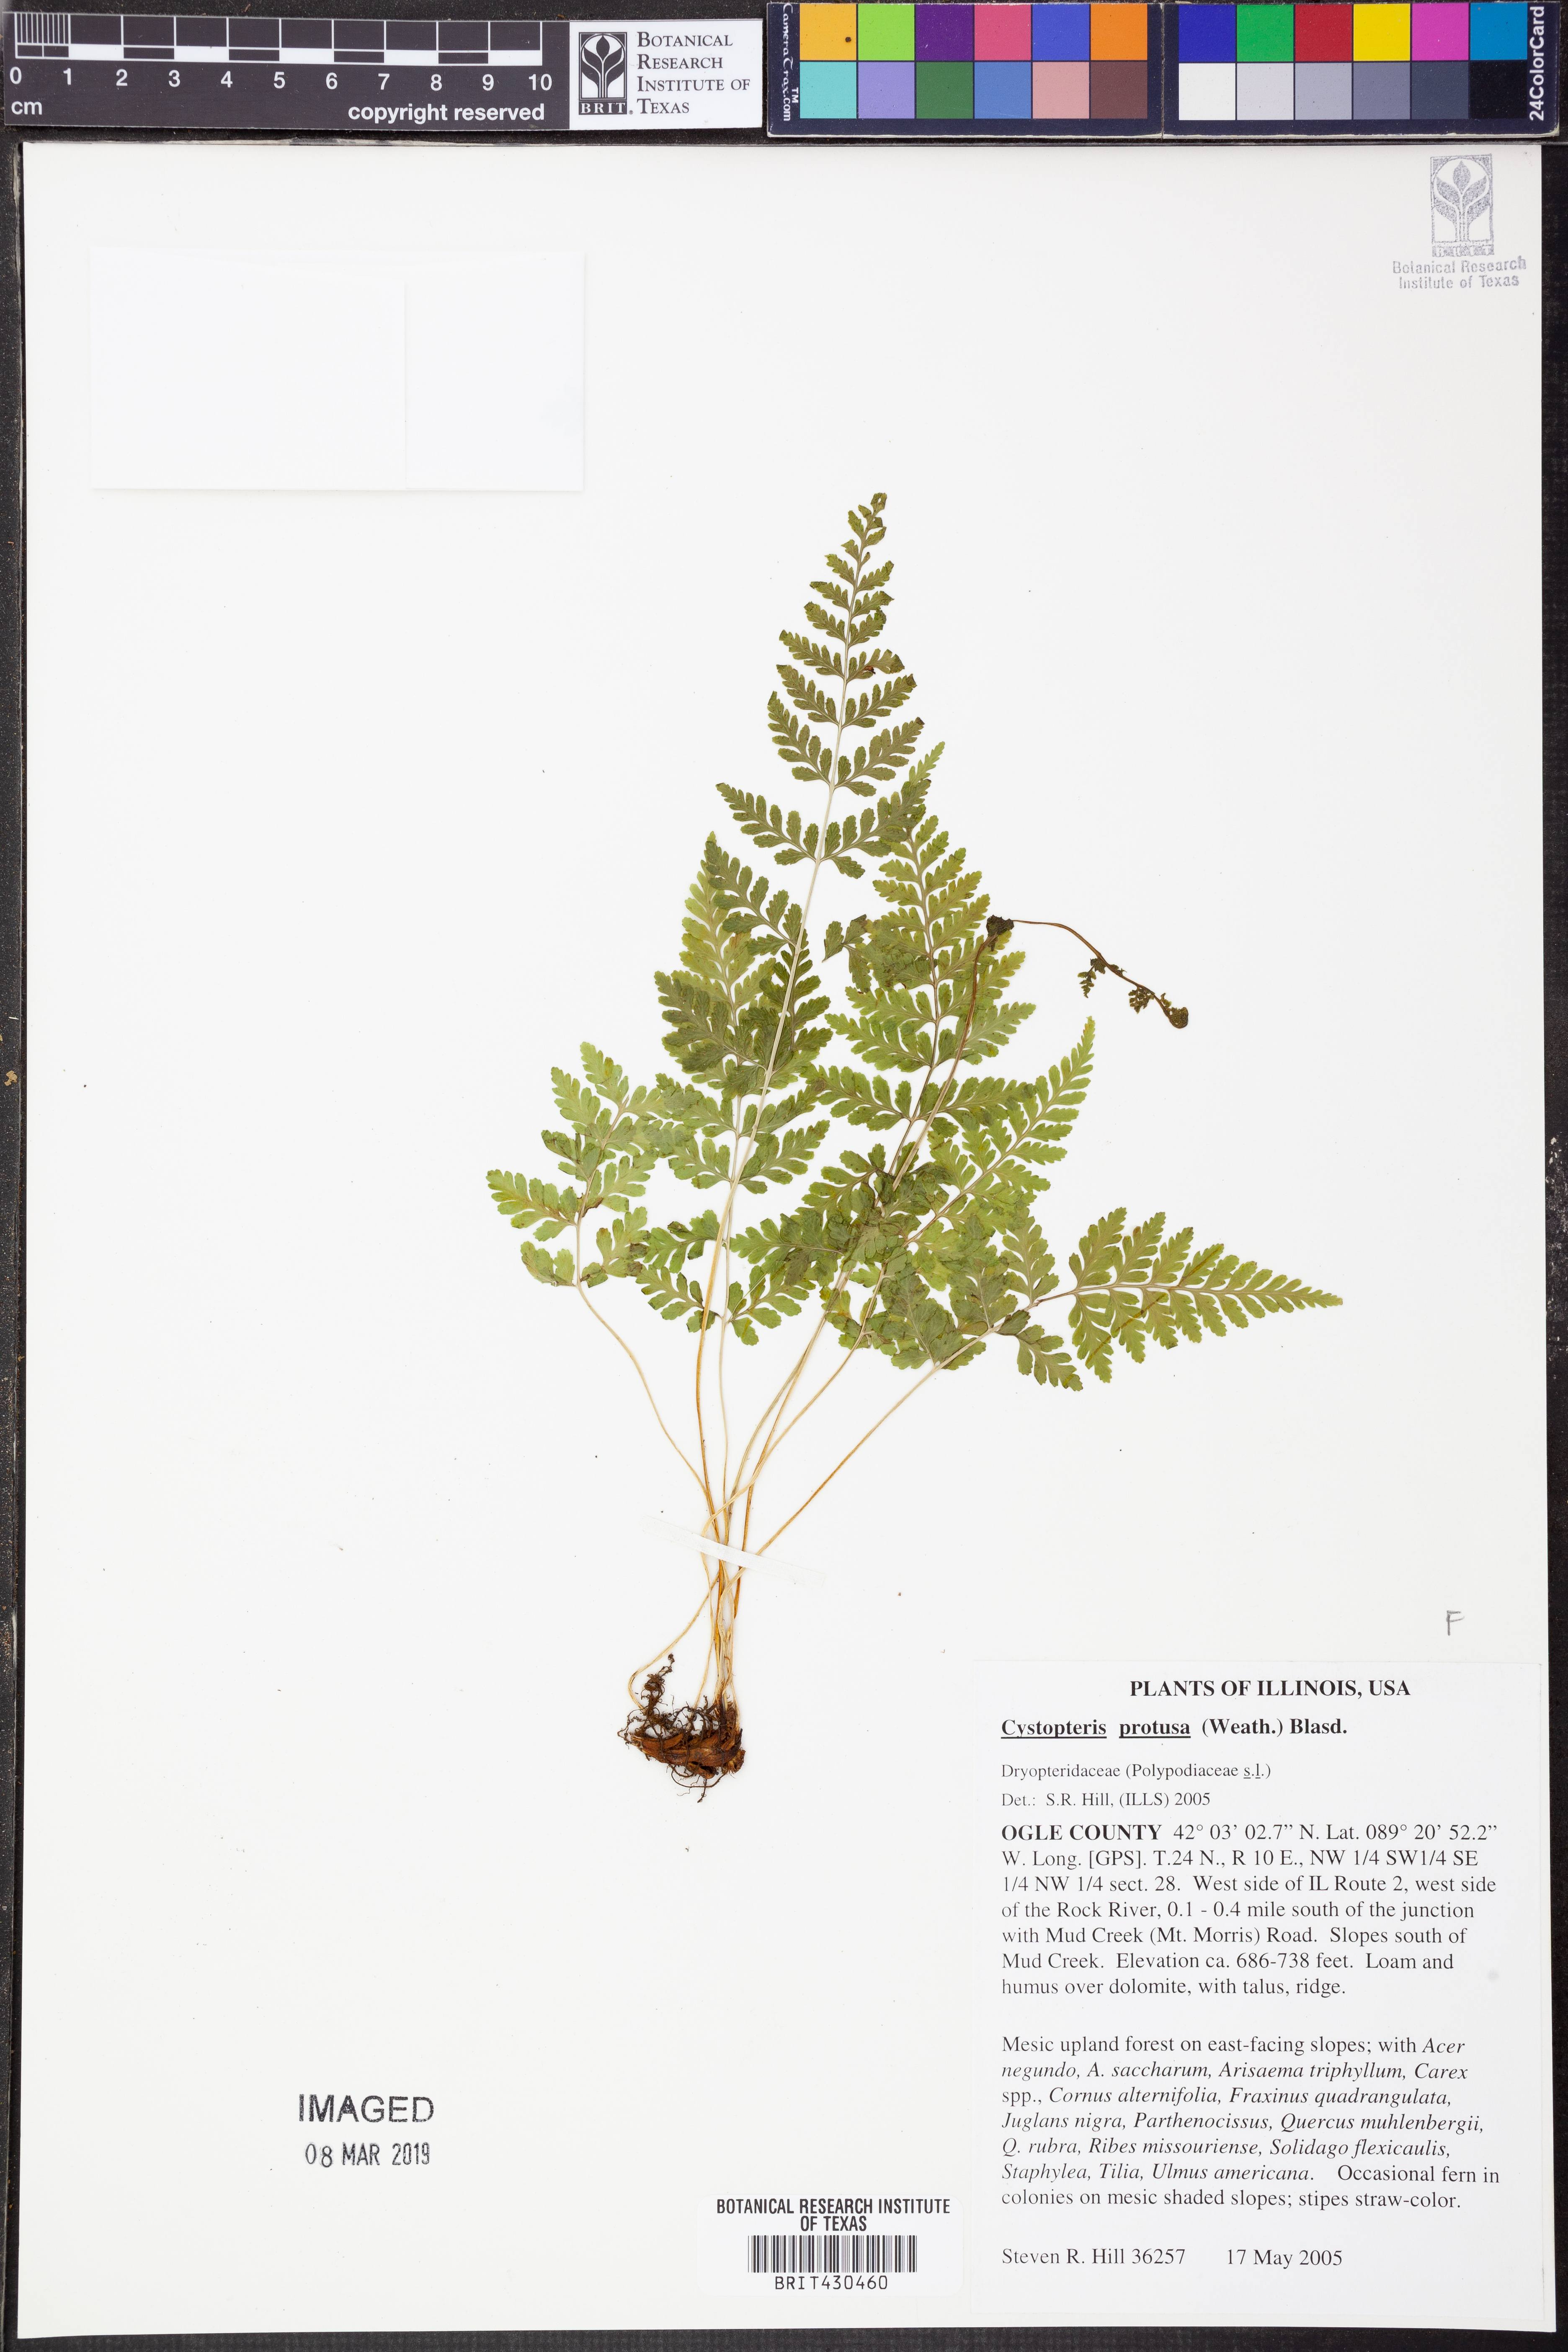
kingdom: Plantae
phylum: Tracheophyta
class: Polypodiopsida
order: Polypodiales
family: Cystopteridaceae
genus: Cystopteris
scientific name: Cystopteris protrusa
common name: Lowland brittle fern
